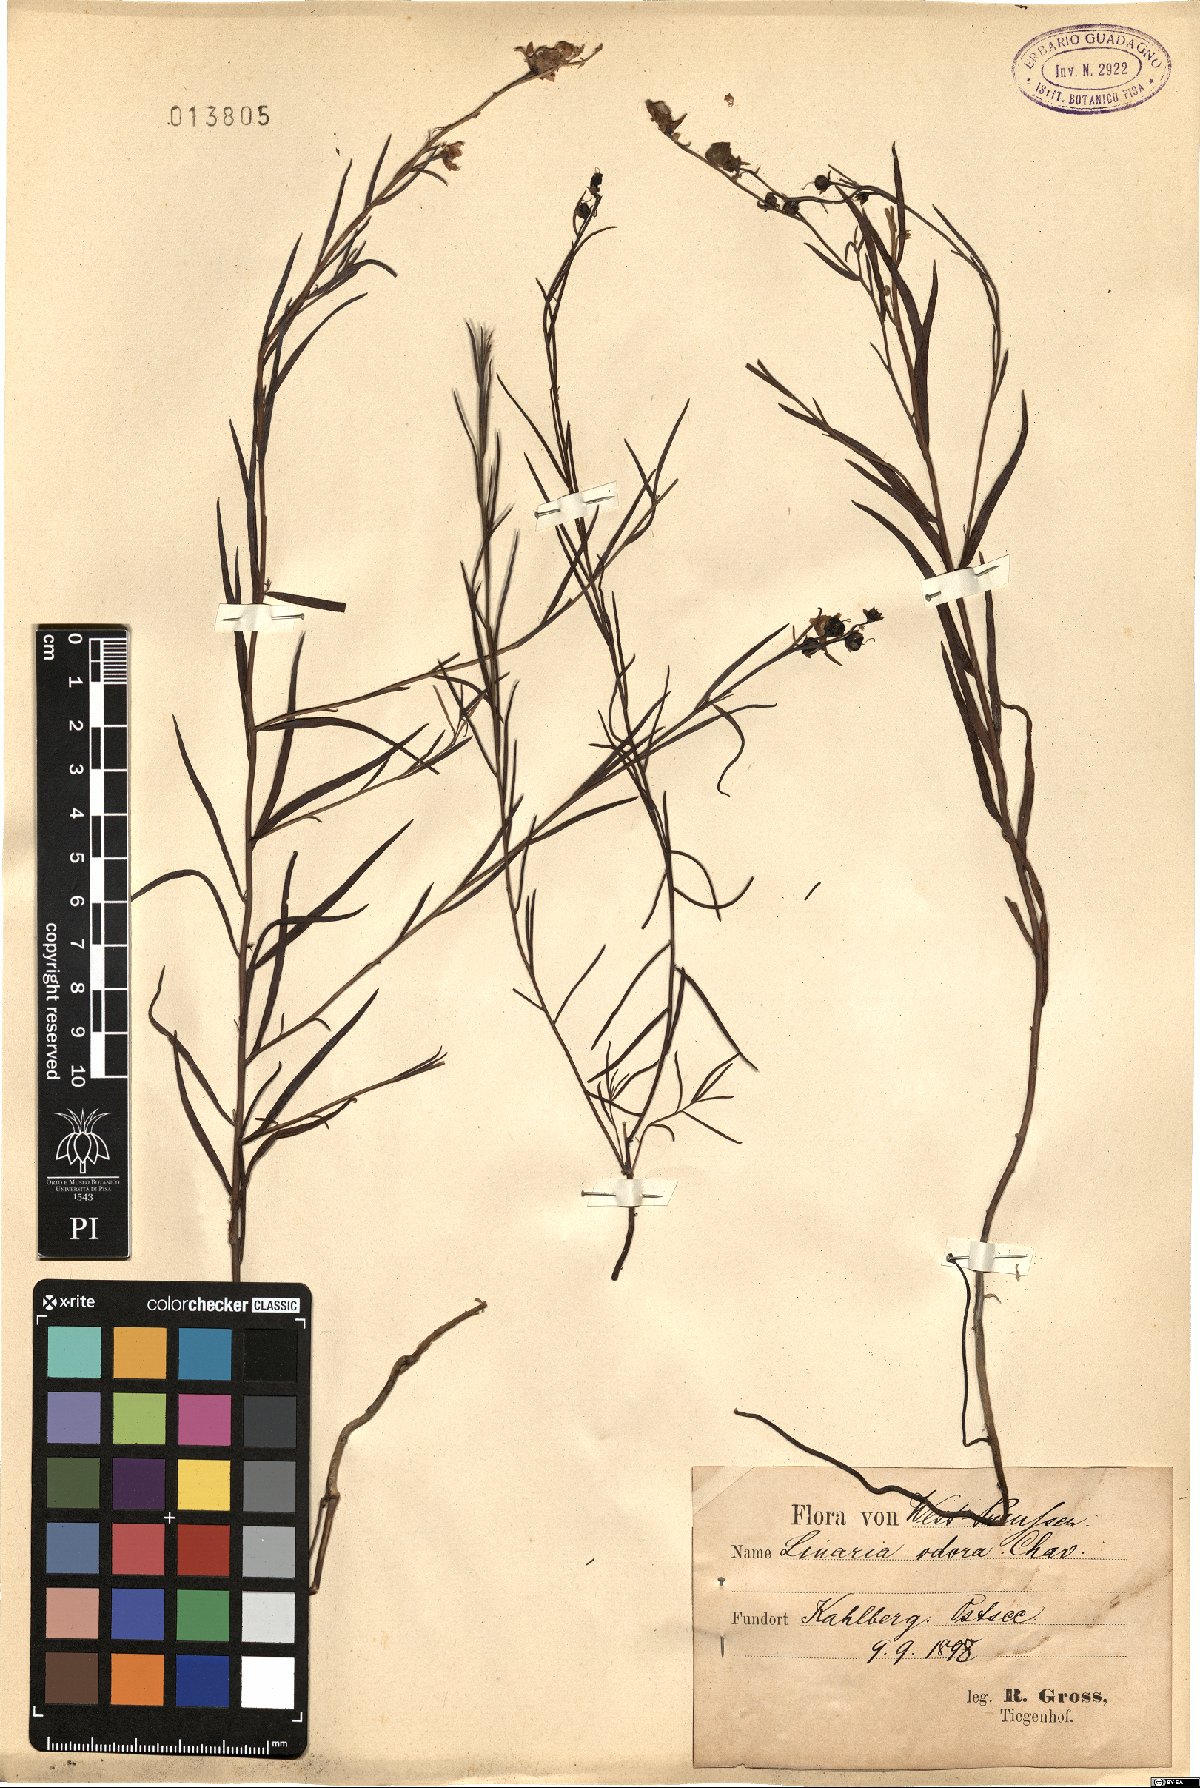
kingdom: Plantae
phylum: Tracheophyta
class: Magnoliopsida
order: Lamiales
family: Plantaginaceae
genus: Linaria
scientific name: Linaria odora
